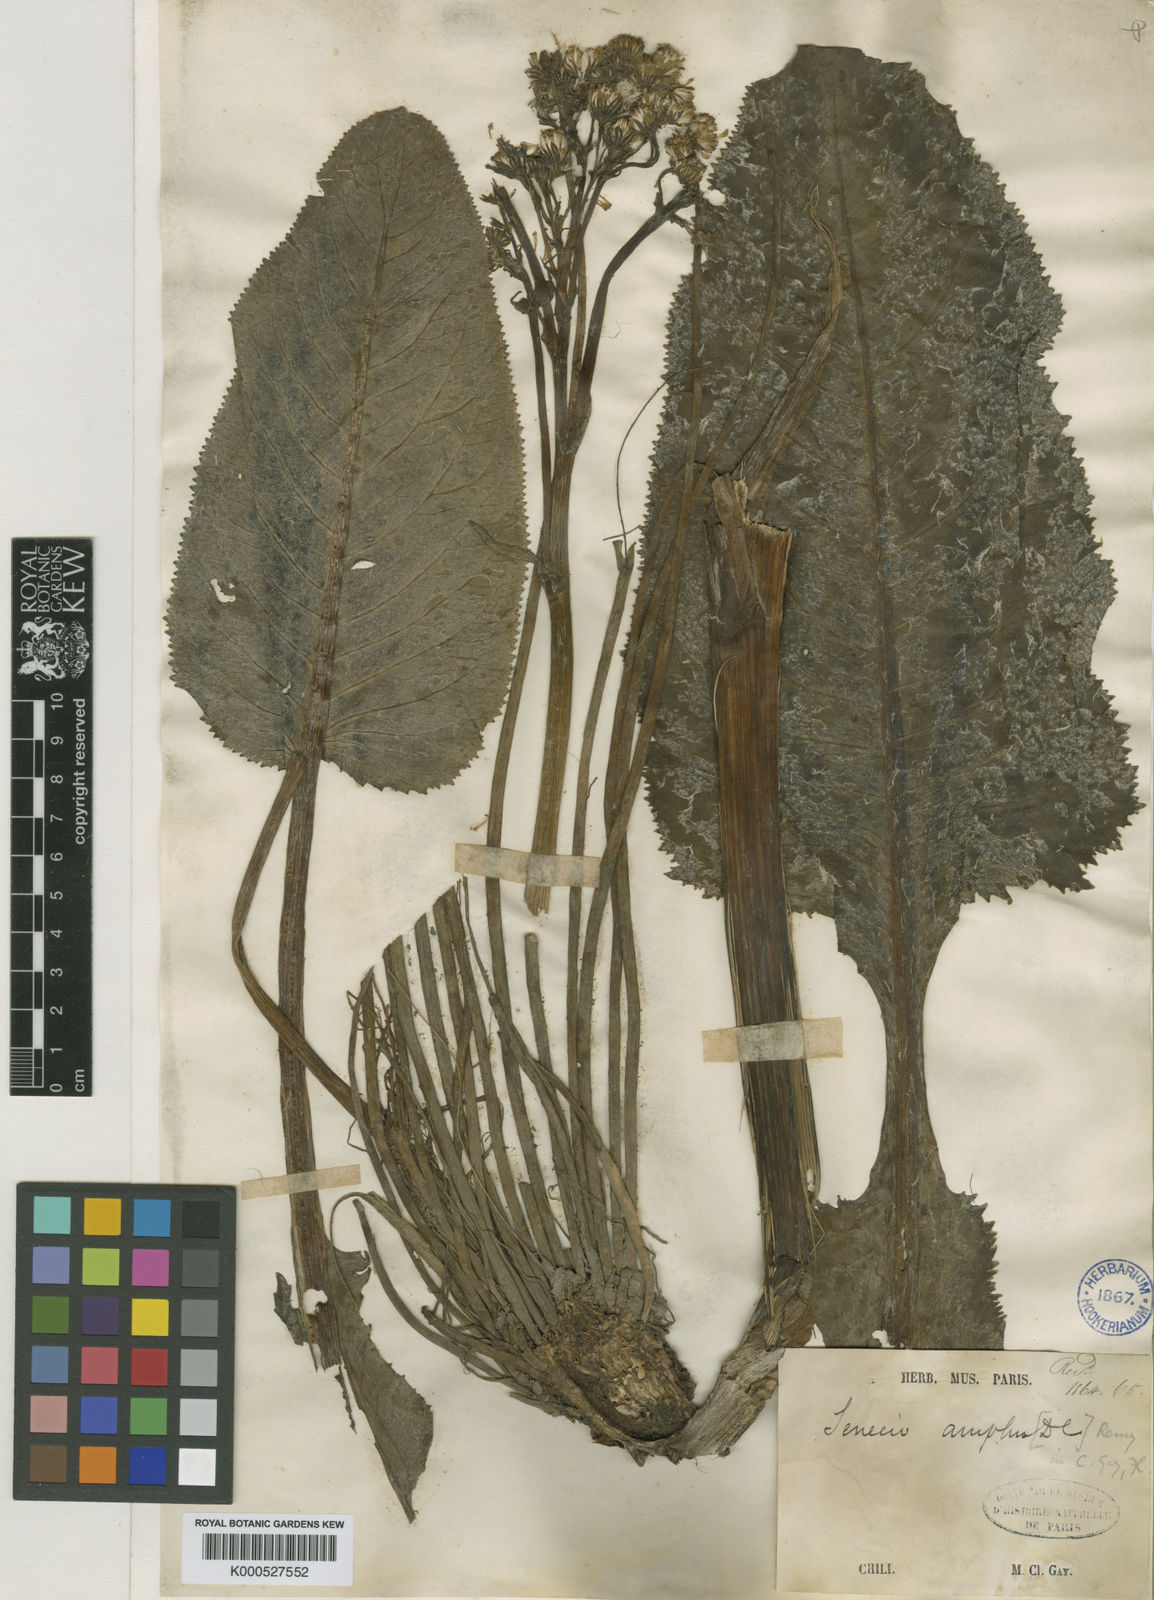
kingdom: Plantae
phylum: Tracheophyta
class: Magnoliopsida
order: Asterales
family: Asteraceae
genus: Senecio
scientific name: Senecio fistulosus
